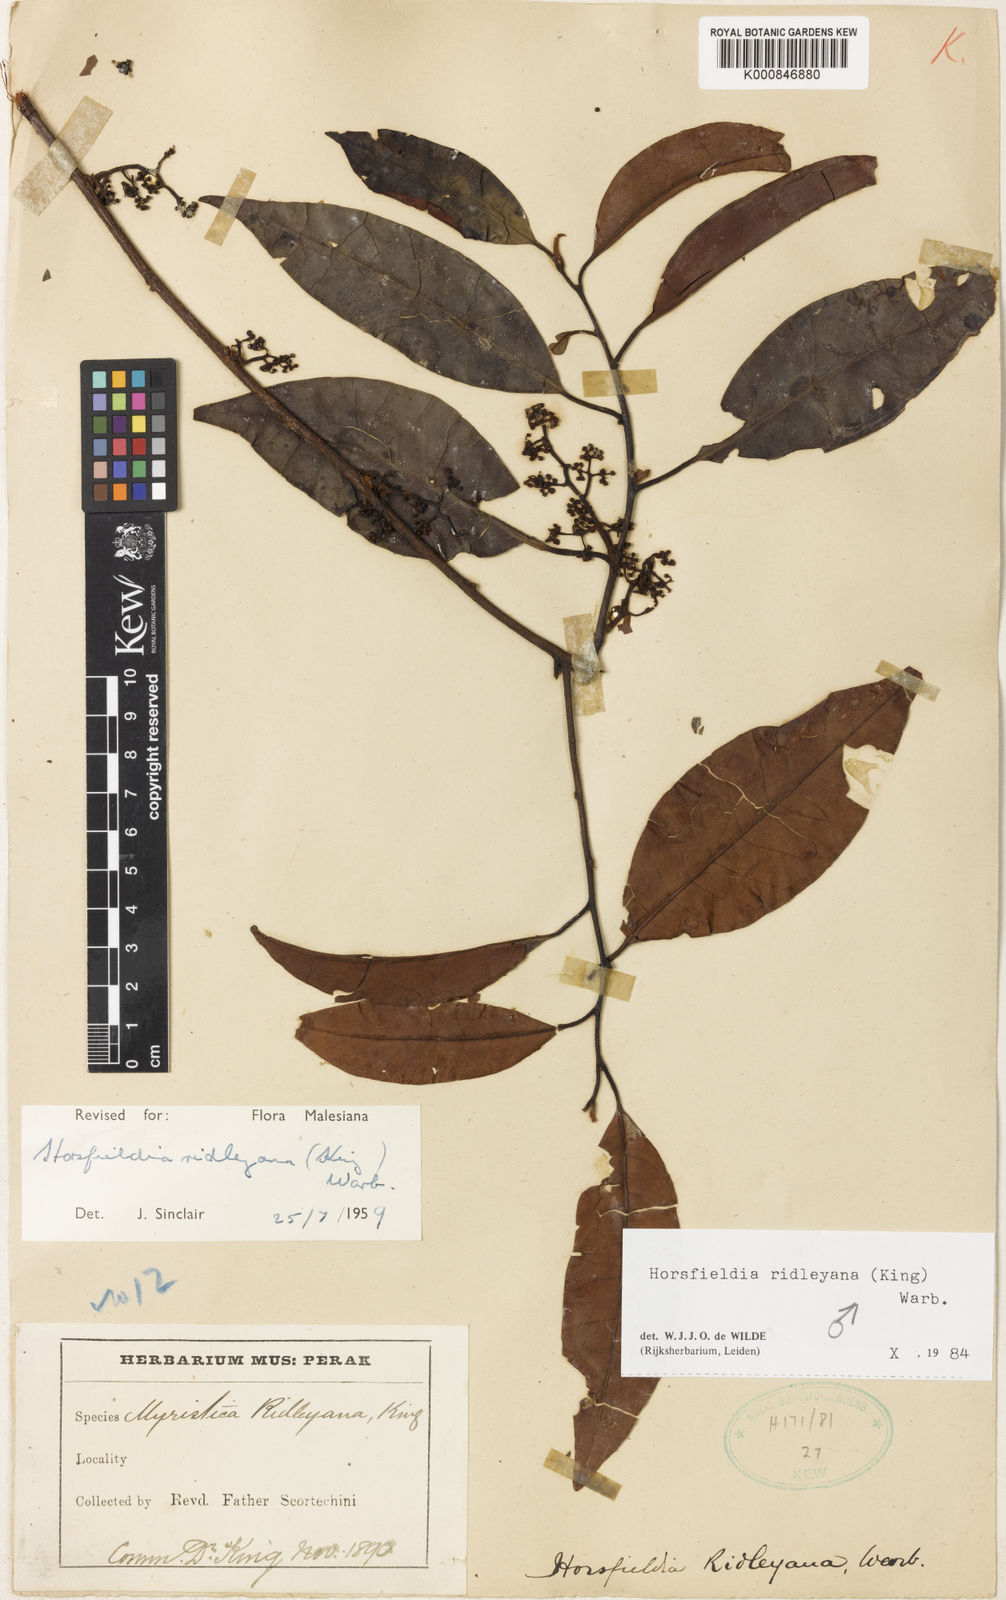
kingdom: Plantae
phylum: Tracheophyta
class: Magnoliopsida
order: Magnoliales
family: Myristicaceae
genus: Horsfieldia
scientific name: Horsfieldia ridleyana
